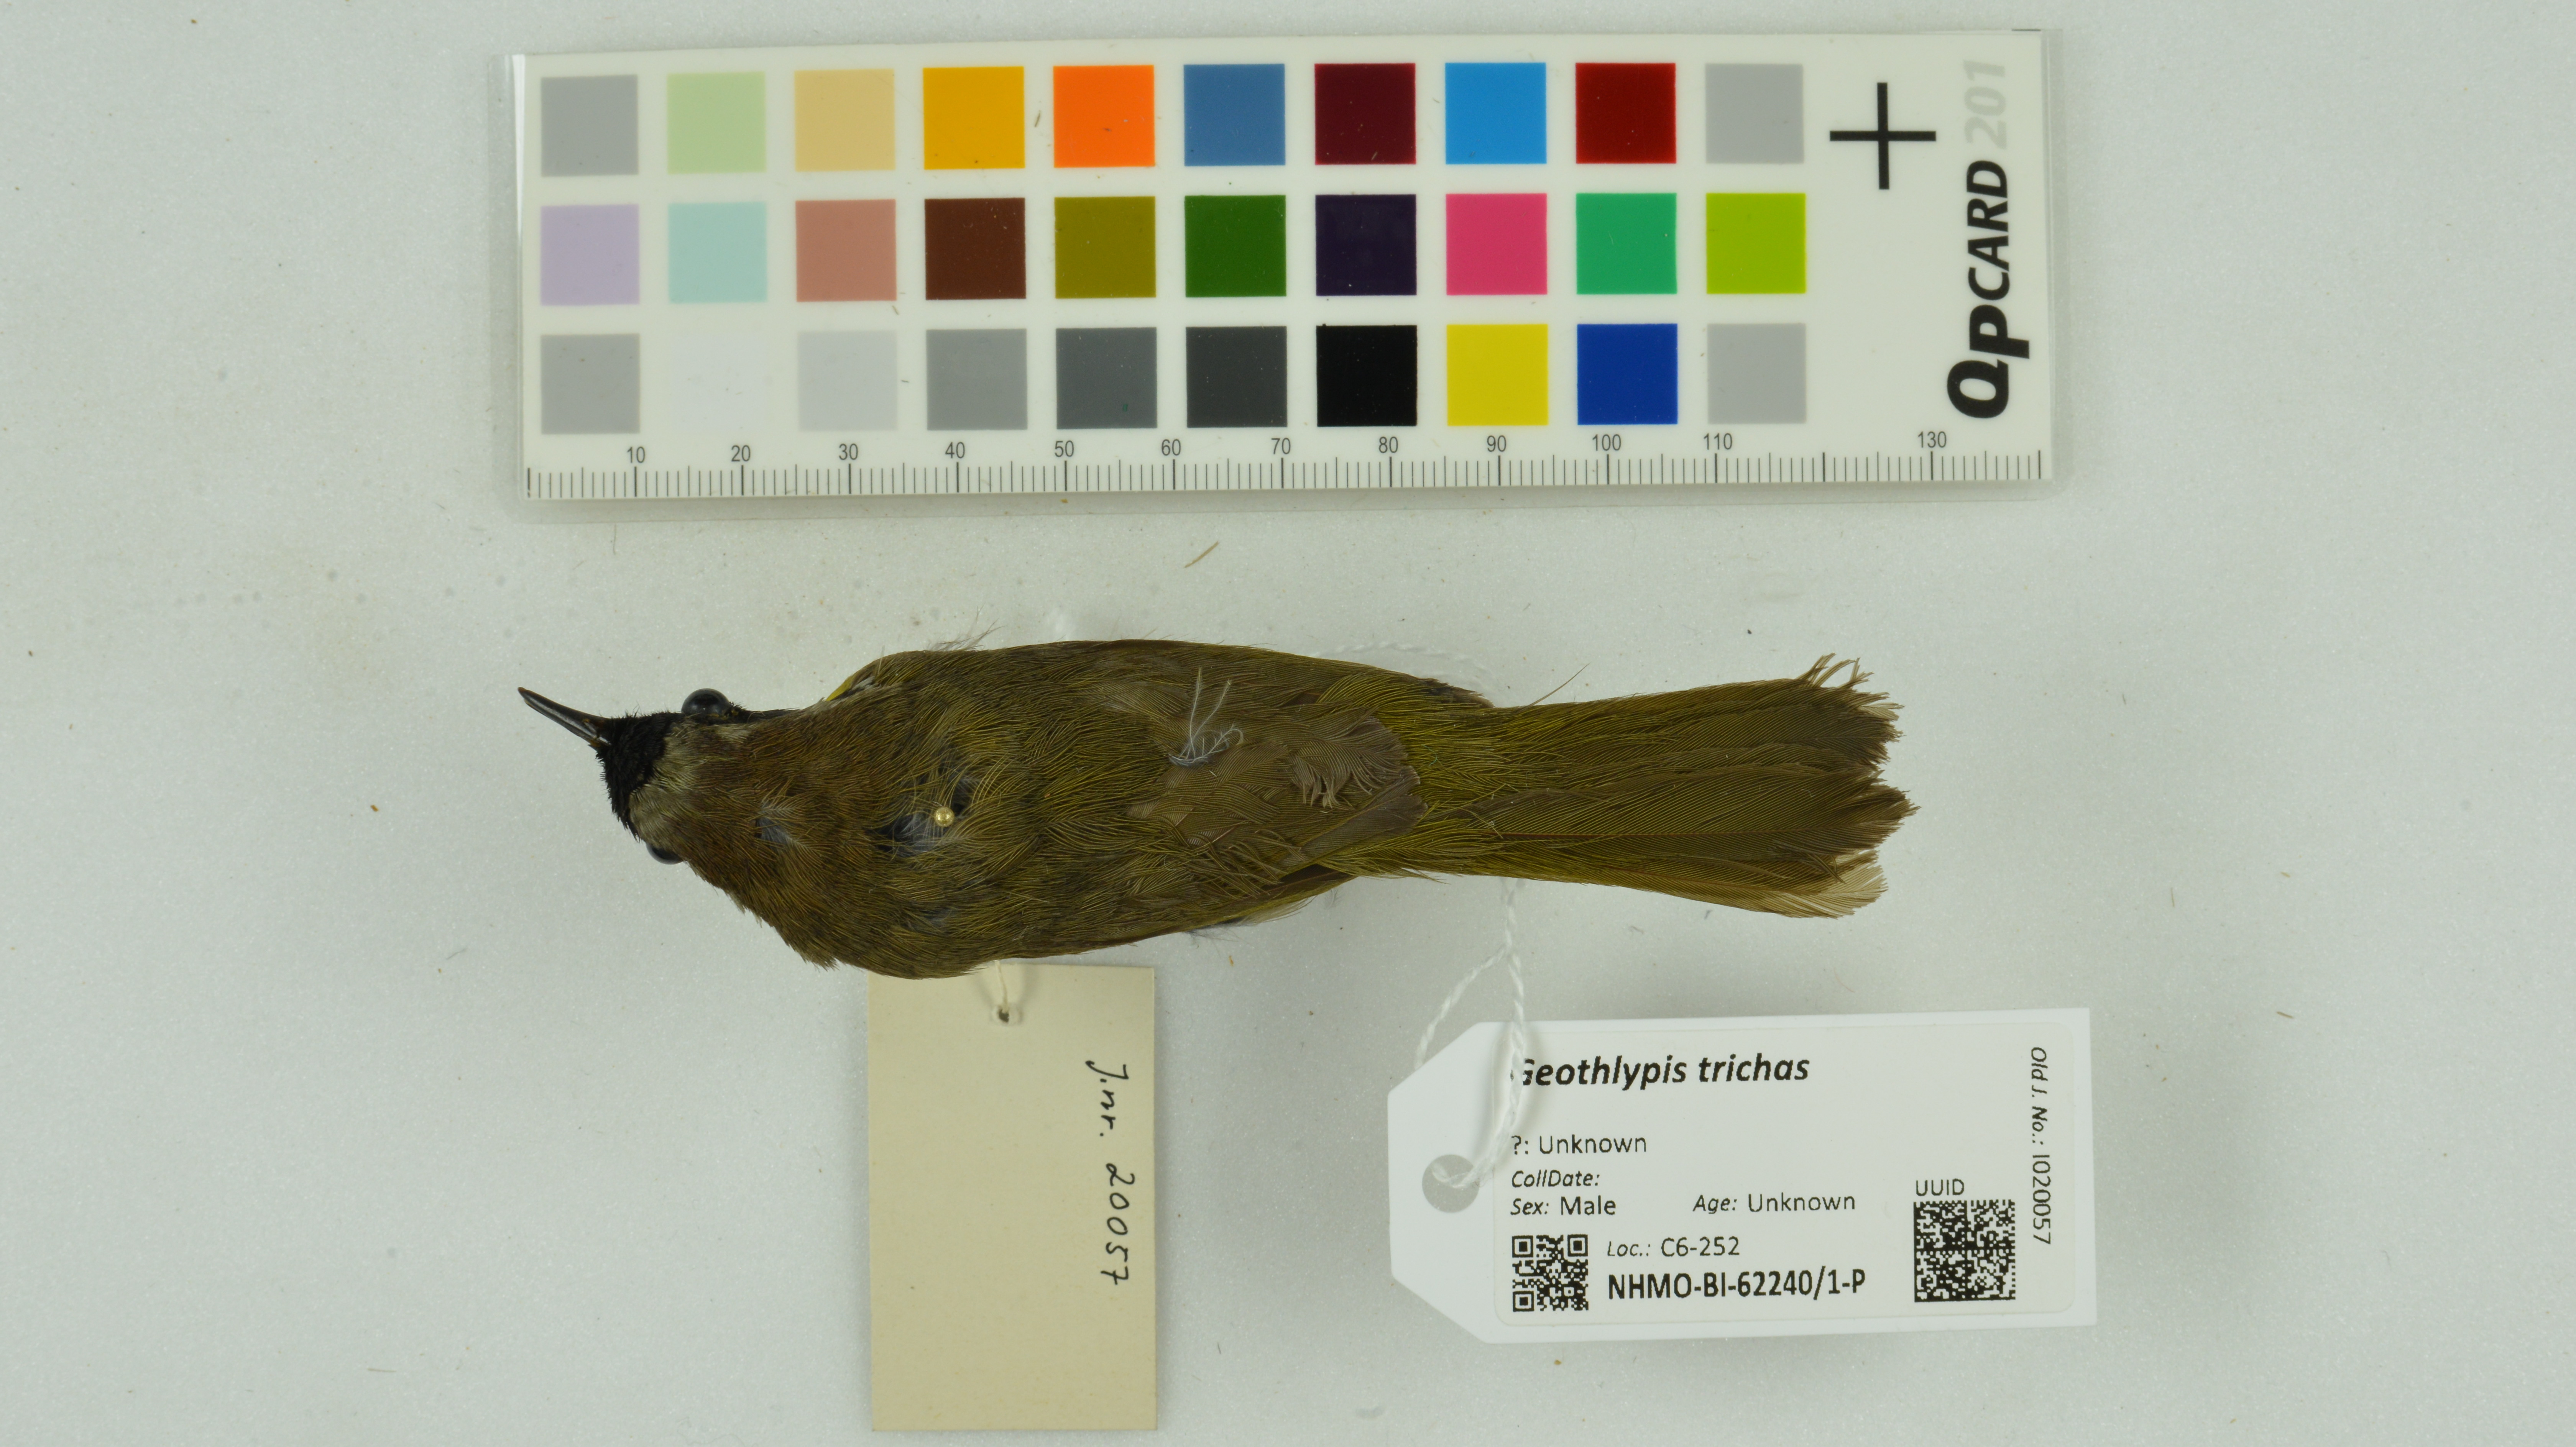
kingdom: Animalia
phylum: Chordata
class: Aves
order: Passeriformes
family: Parulidae
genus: Geothlypis
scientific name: Geothlypis trichas
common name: Common yellowthroat
